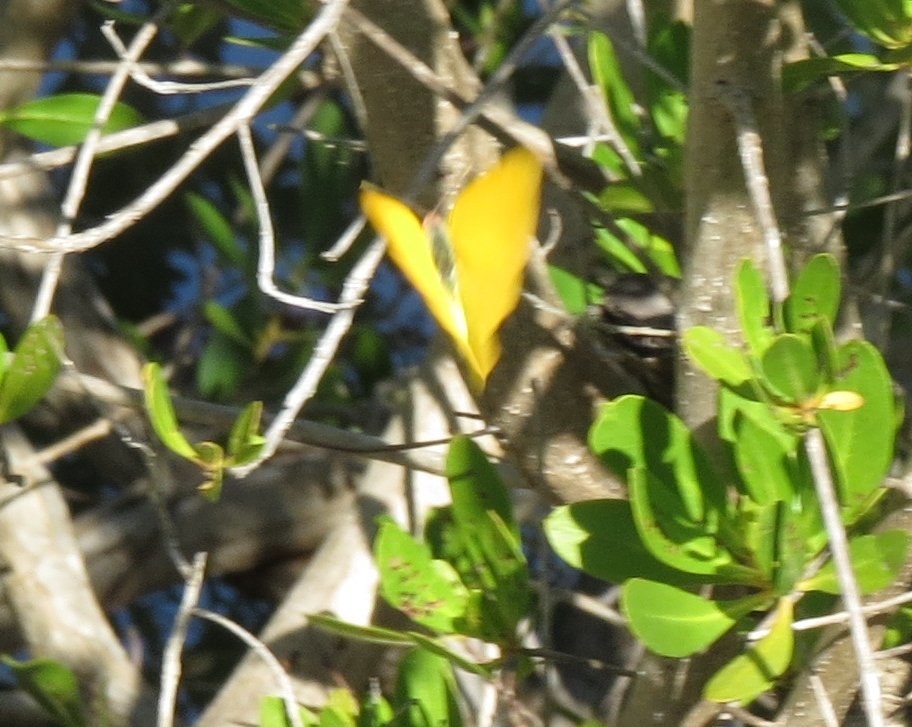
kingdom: Animalia
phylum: Arthropoda
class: Insecta
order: Lepidoptera
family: Pieridae
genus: Phoebis
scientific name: Phoebis agarithe
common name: Large Orange Sulphur
